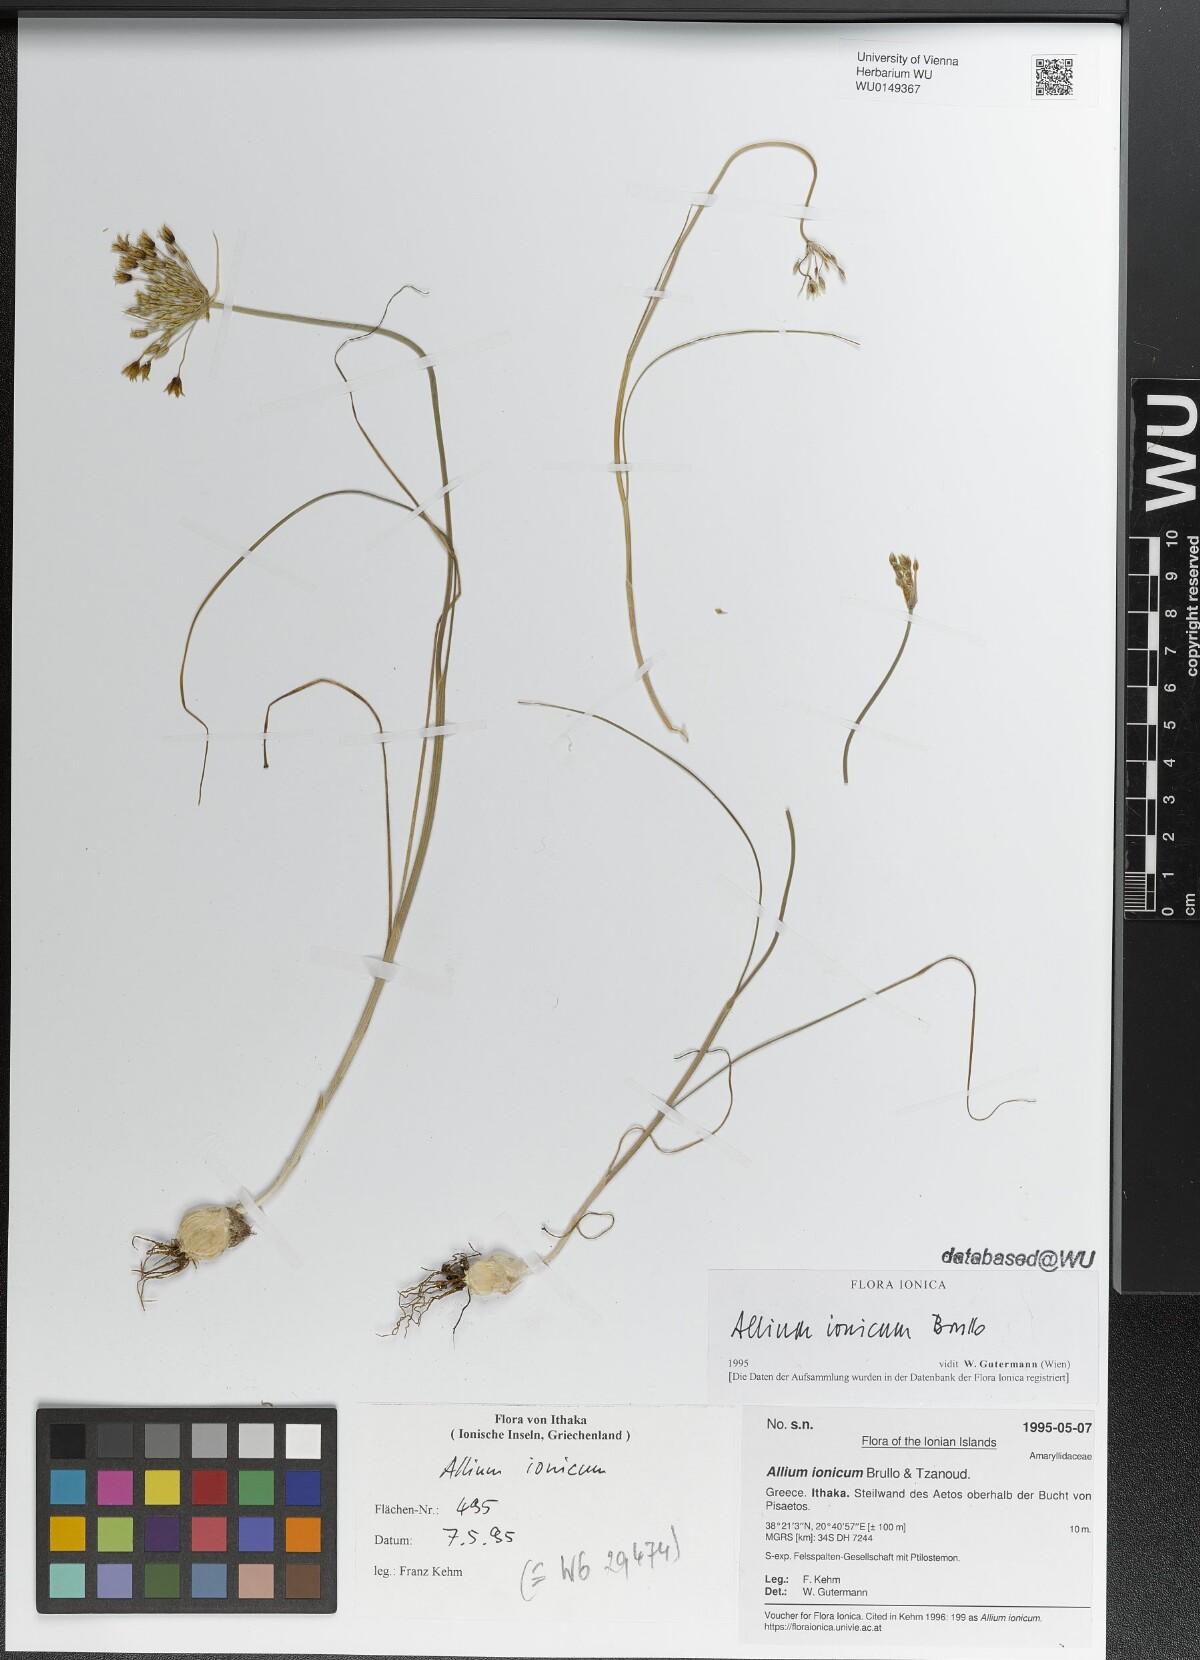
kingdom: Plantae
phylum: Tracheophyta
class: Liliopsida
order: Asparagales
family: Amaryllidaceae
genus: Allium
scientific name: Allium ionicum
